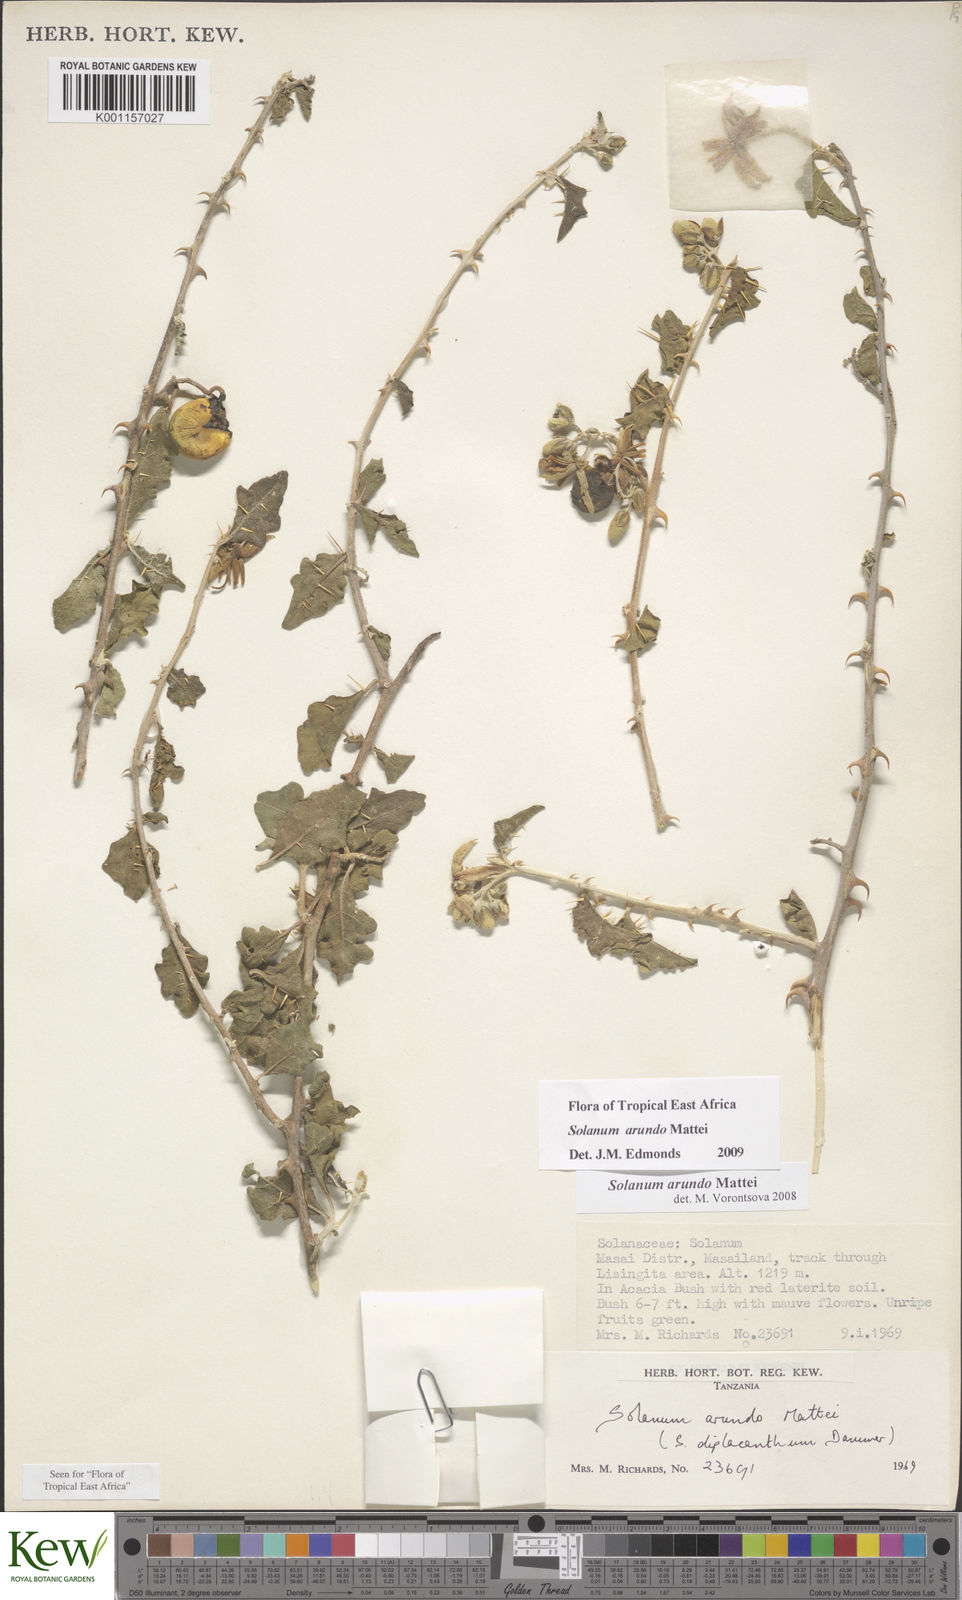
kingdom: Plantae
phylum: Tracheophyta
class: Magnoliopsida
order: Solanales
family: Solanaceae
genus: Solanum
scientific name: Solanum arundo
